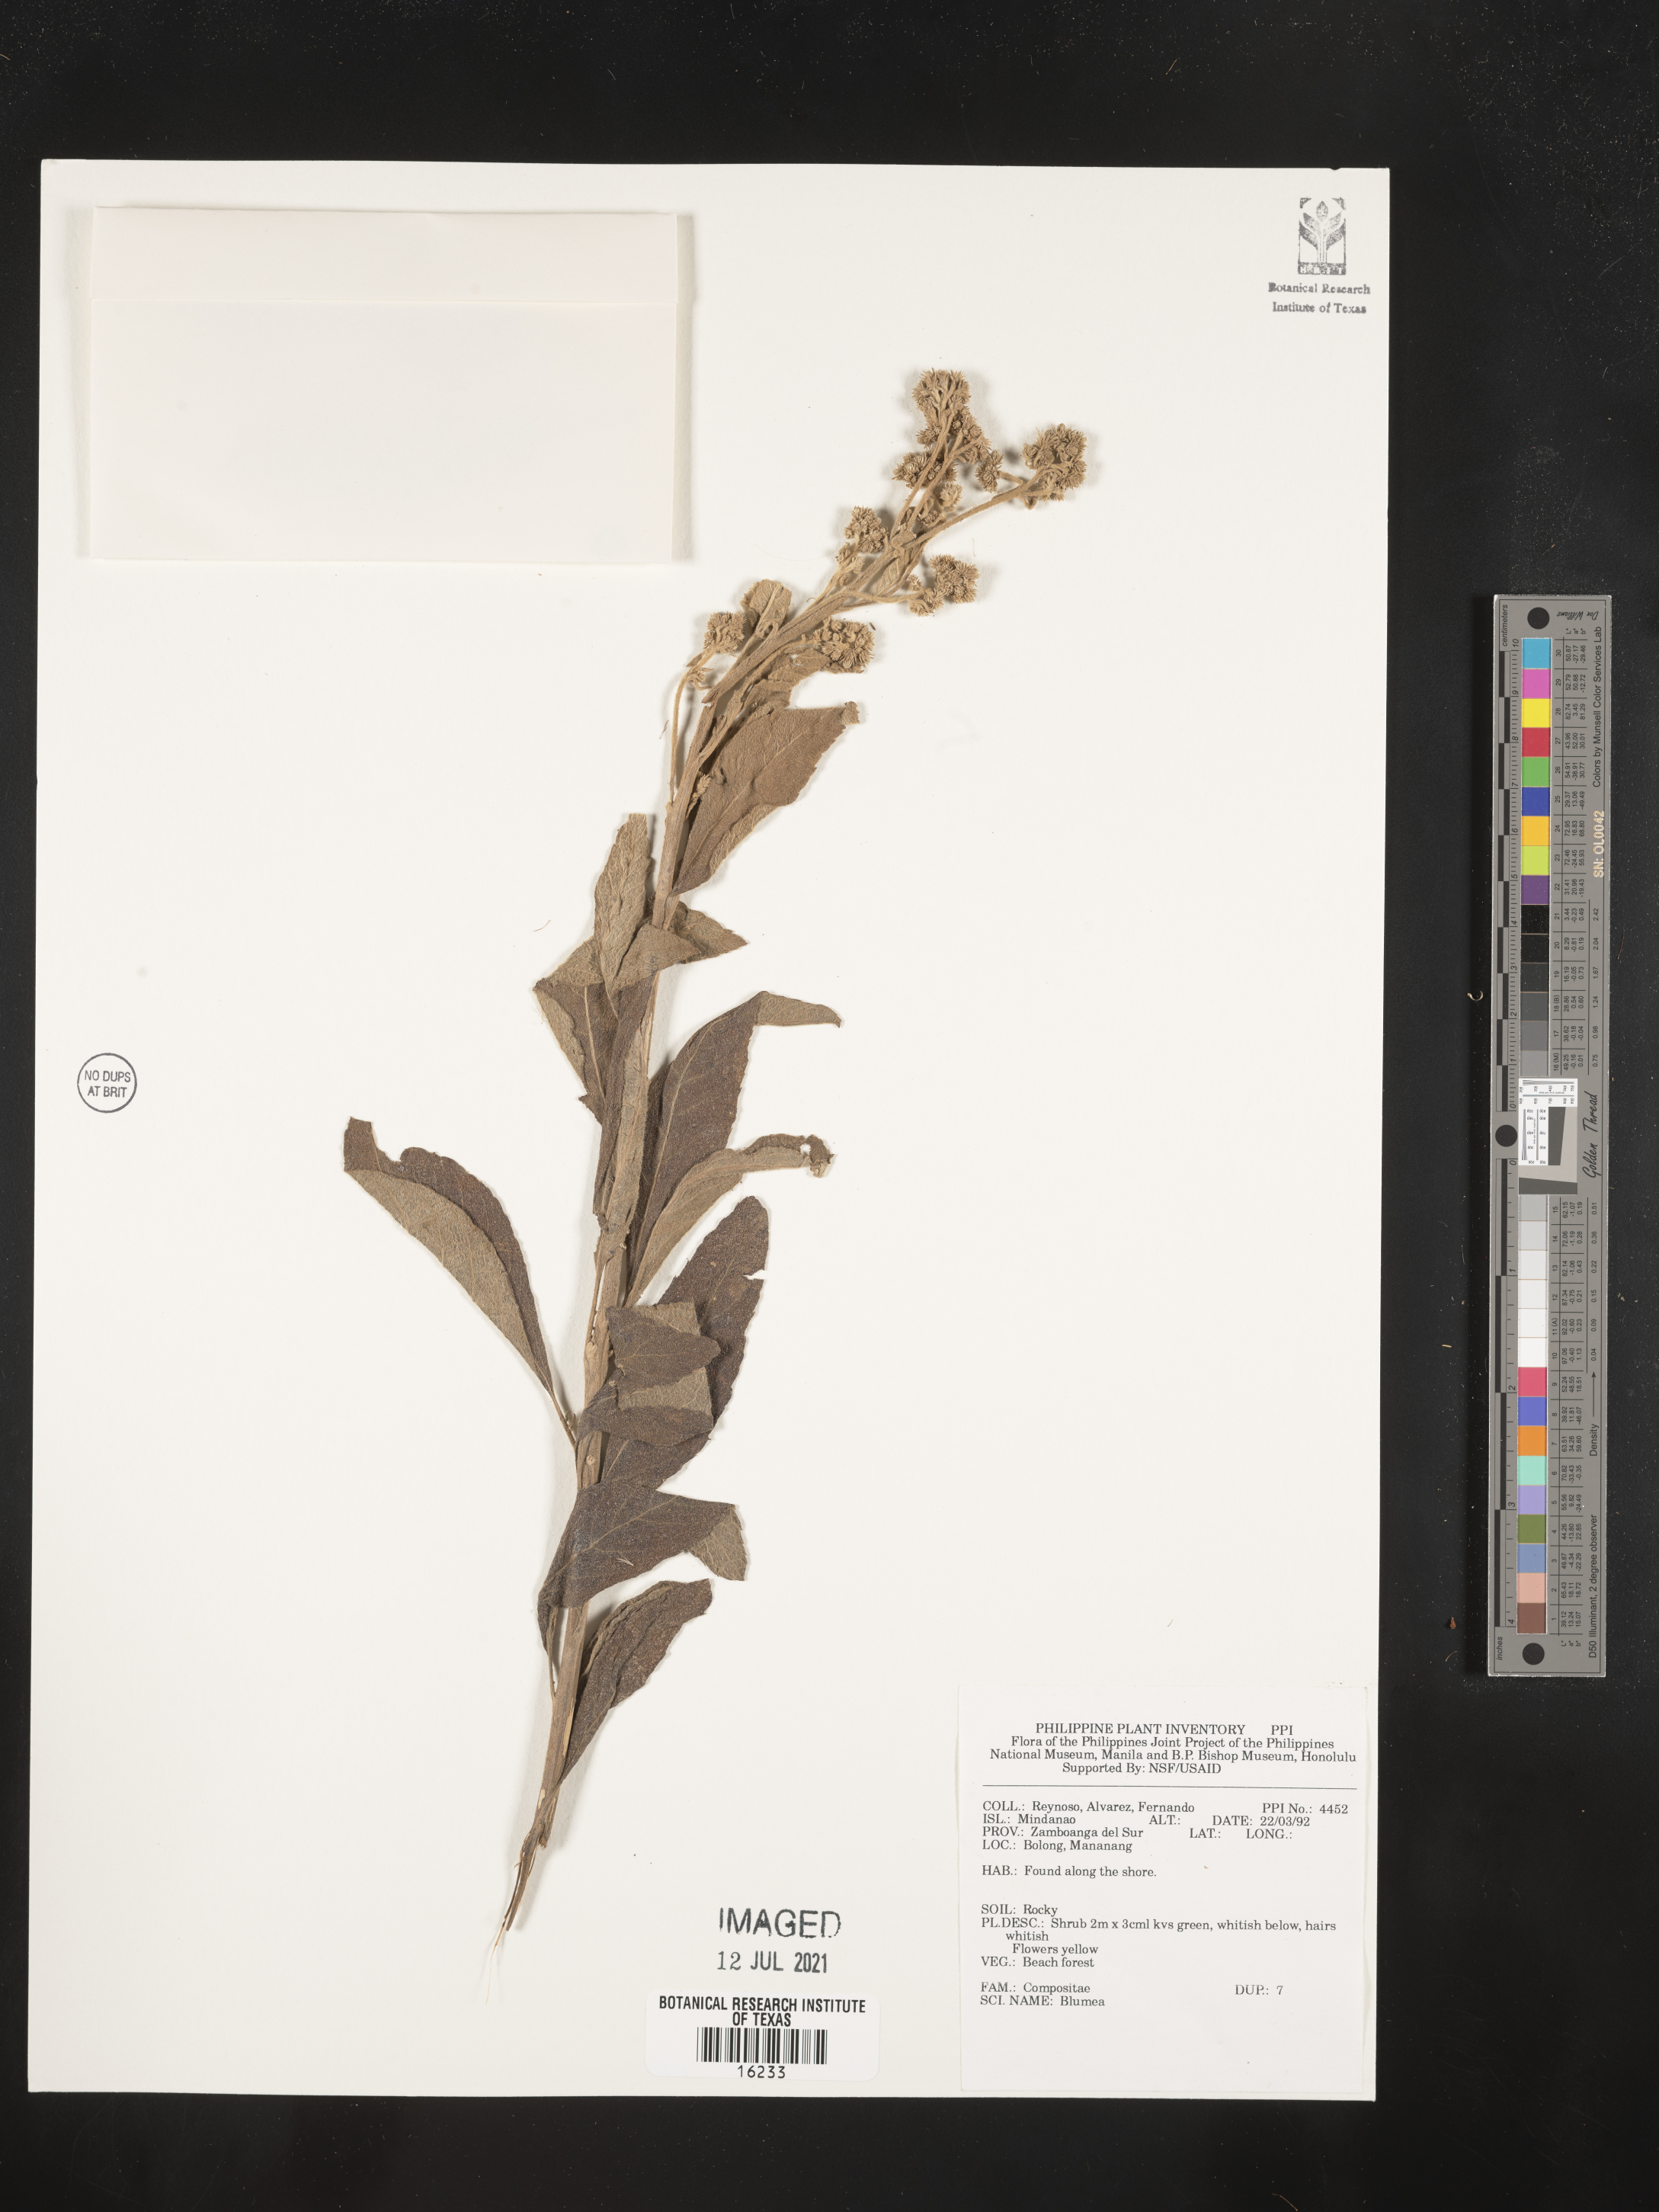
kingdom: Plantae
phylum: Tracheophyta
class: Magnoliopsida
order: Asterales
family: Asteraceae
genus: Blumea
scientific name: Blumea
